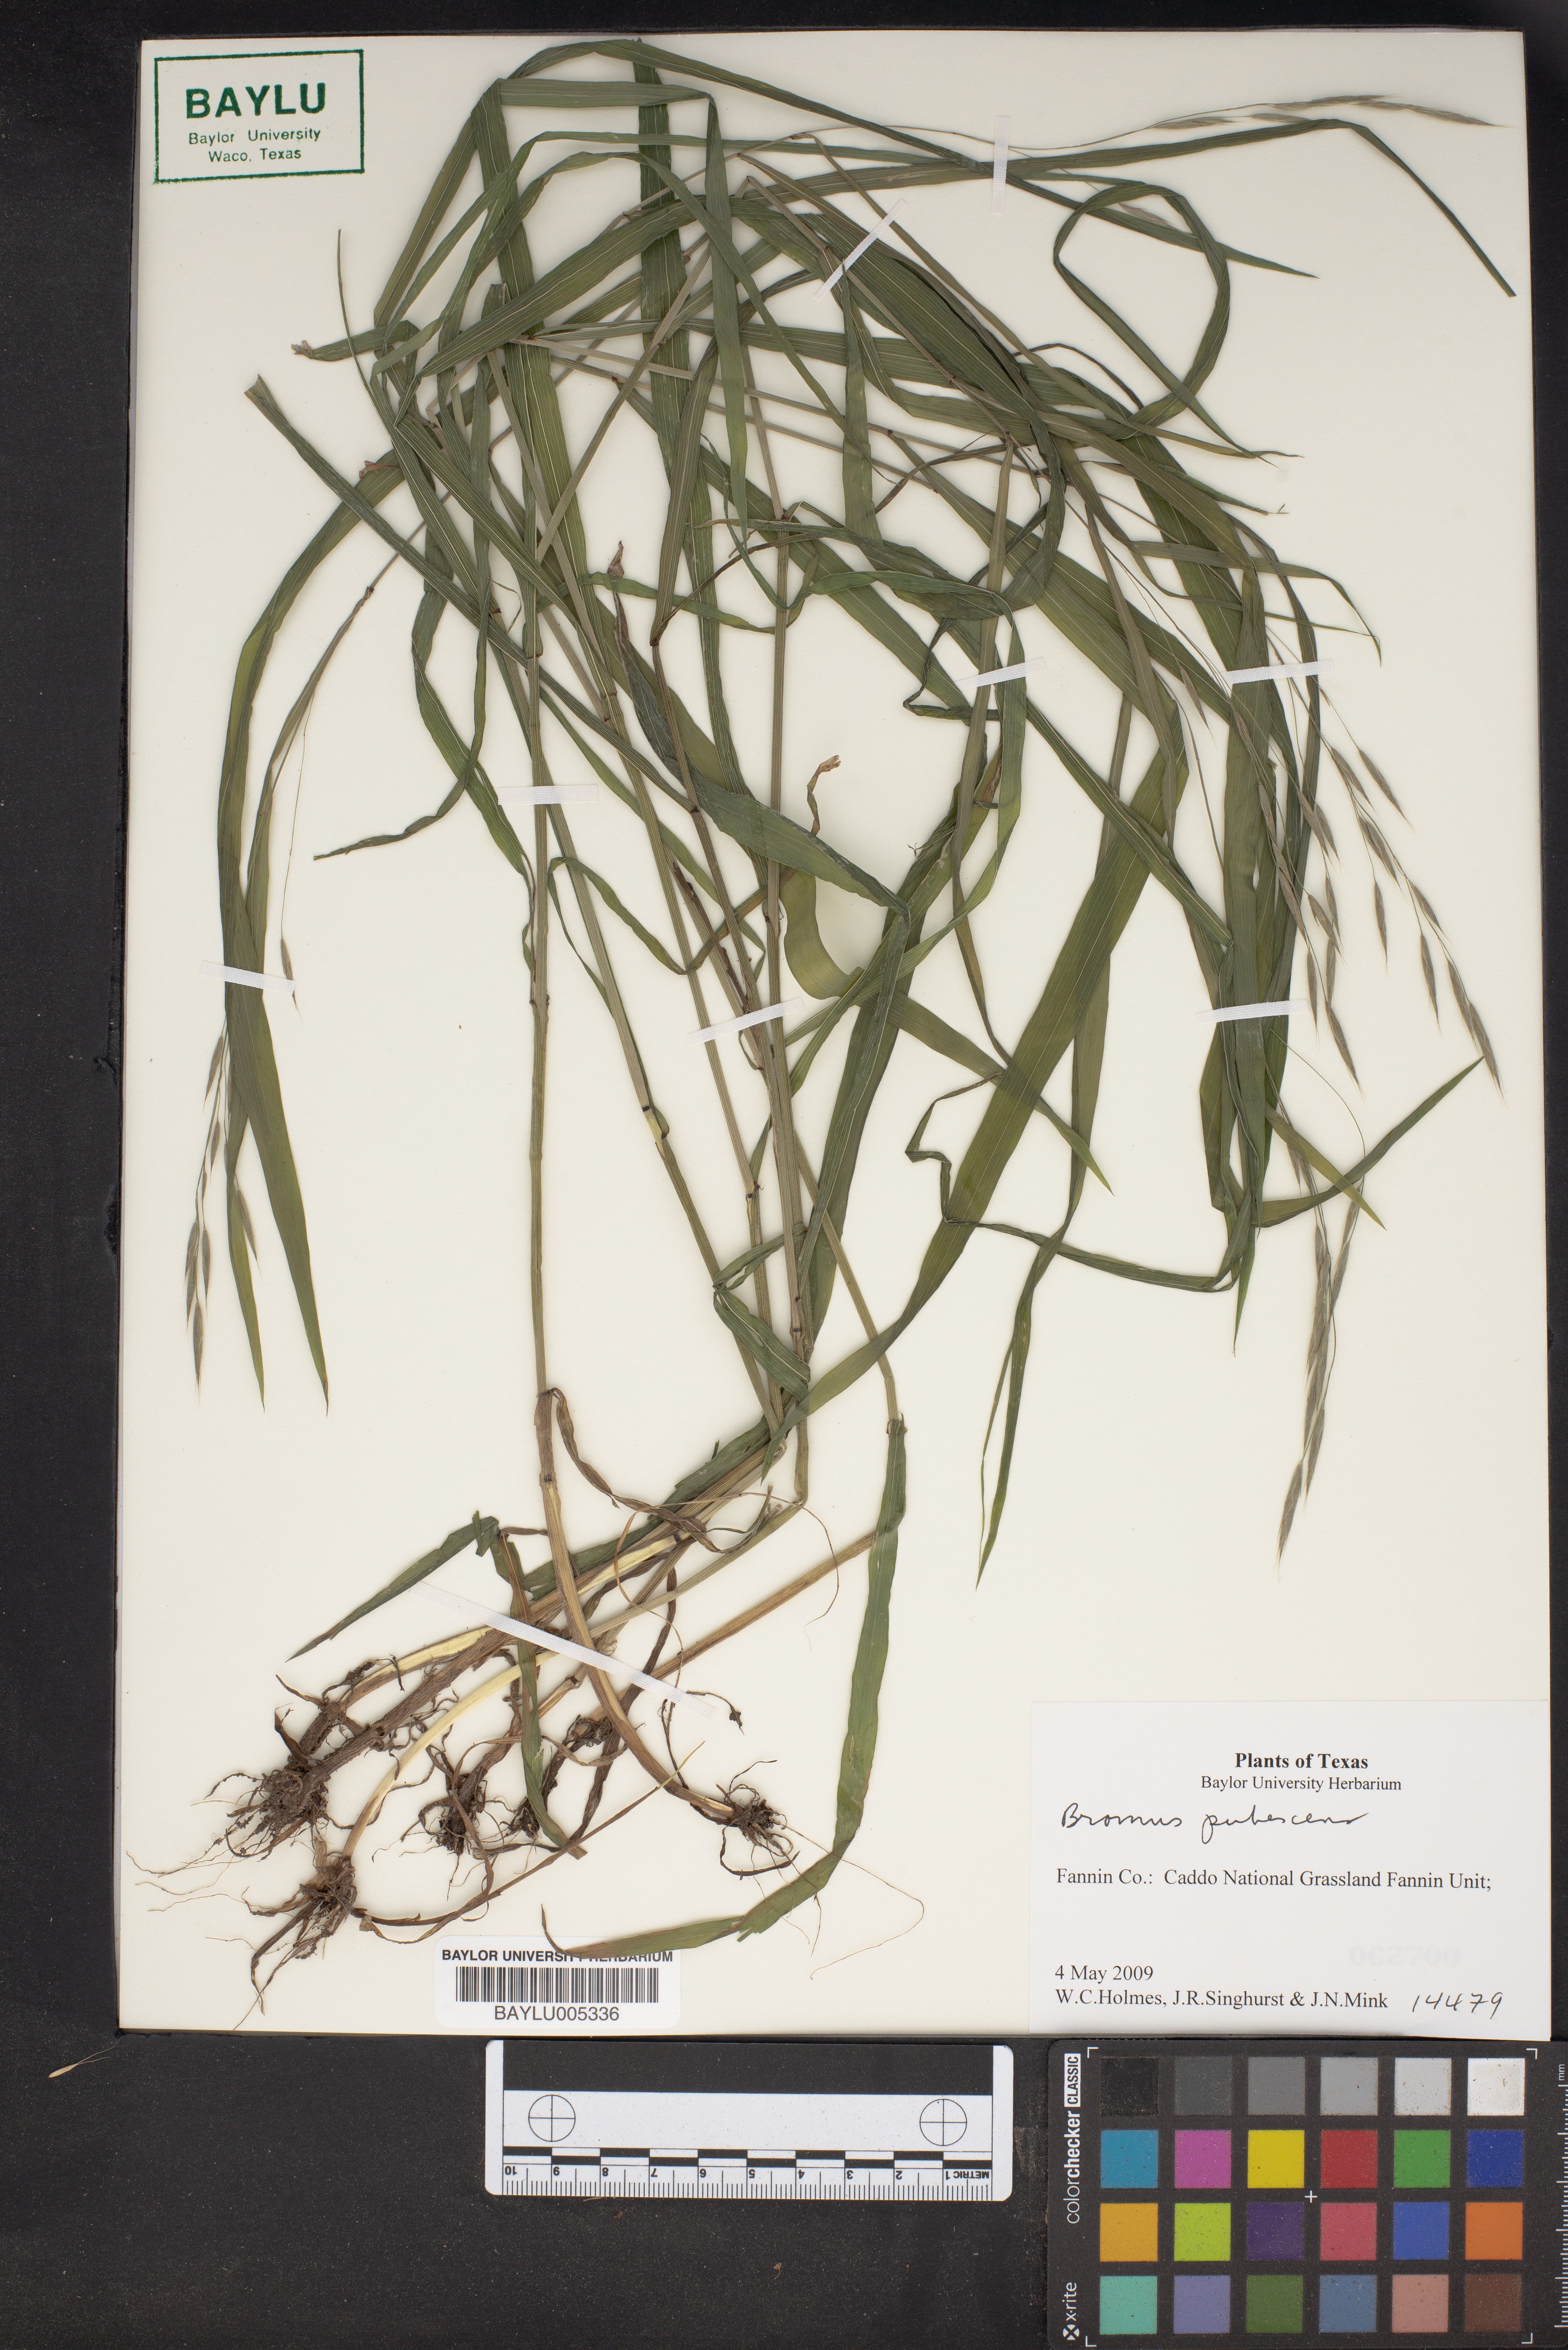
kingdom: Plantae
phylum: Tracheophyta
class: Liliopsida
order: Poales
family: Poaceae
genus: Bromus
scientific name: Bromus pubescens
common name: Hairy wood brome grass
